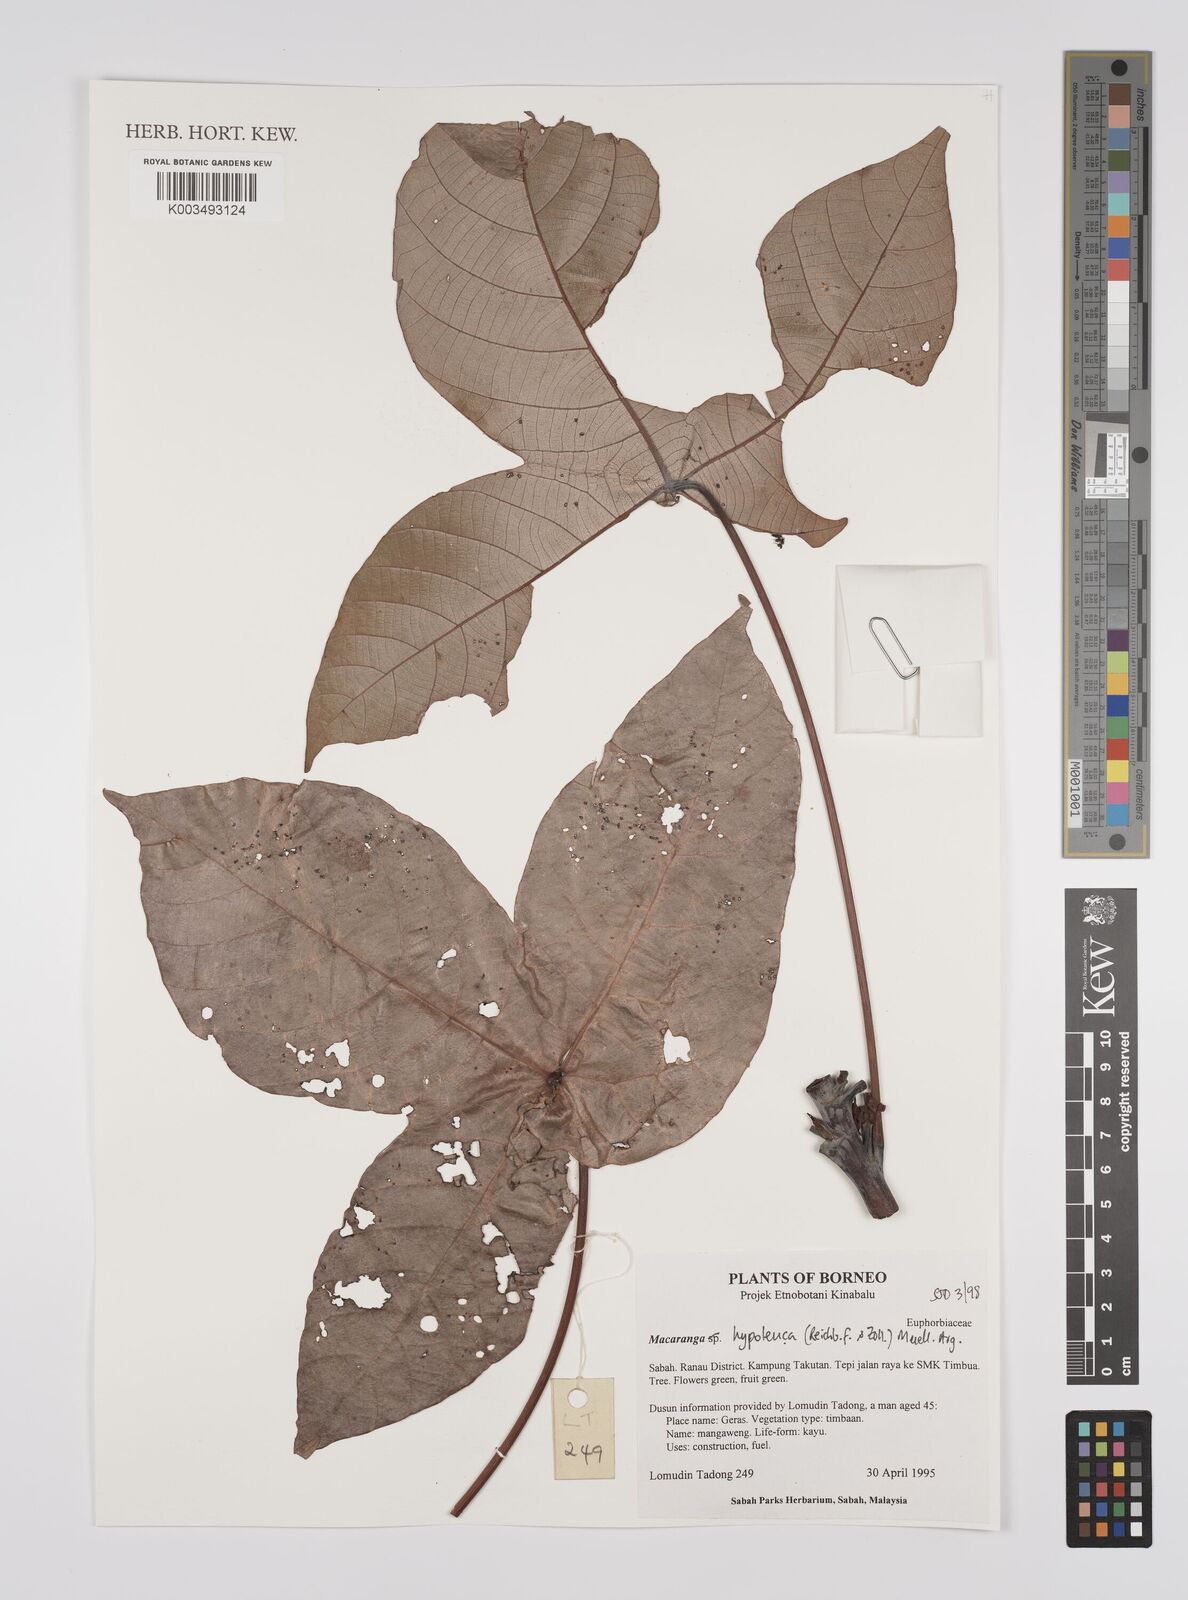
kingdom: Plantae
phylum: Tracheophyta
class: Magnoliopsida
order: Malpighiales
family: Euphorbiaceae
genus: Macaranga
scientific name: Macaranga hypoleuca
